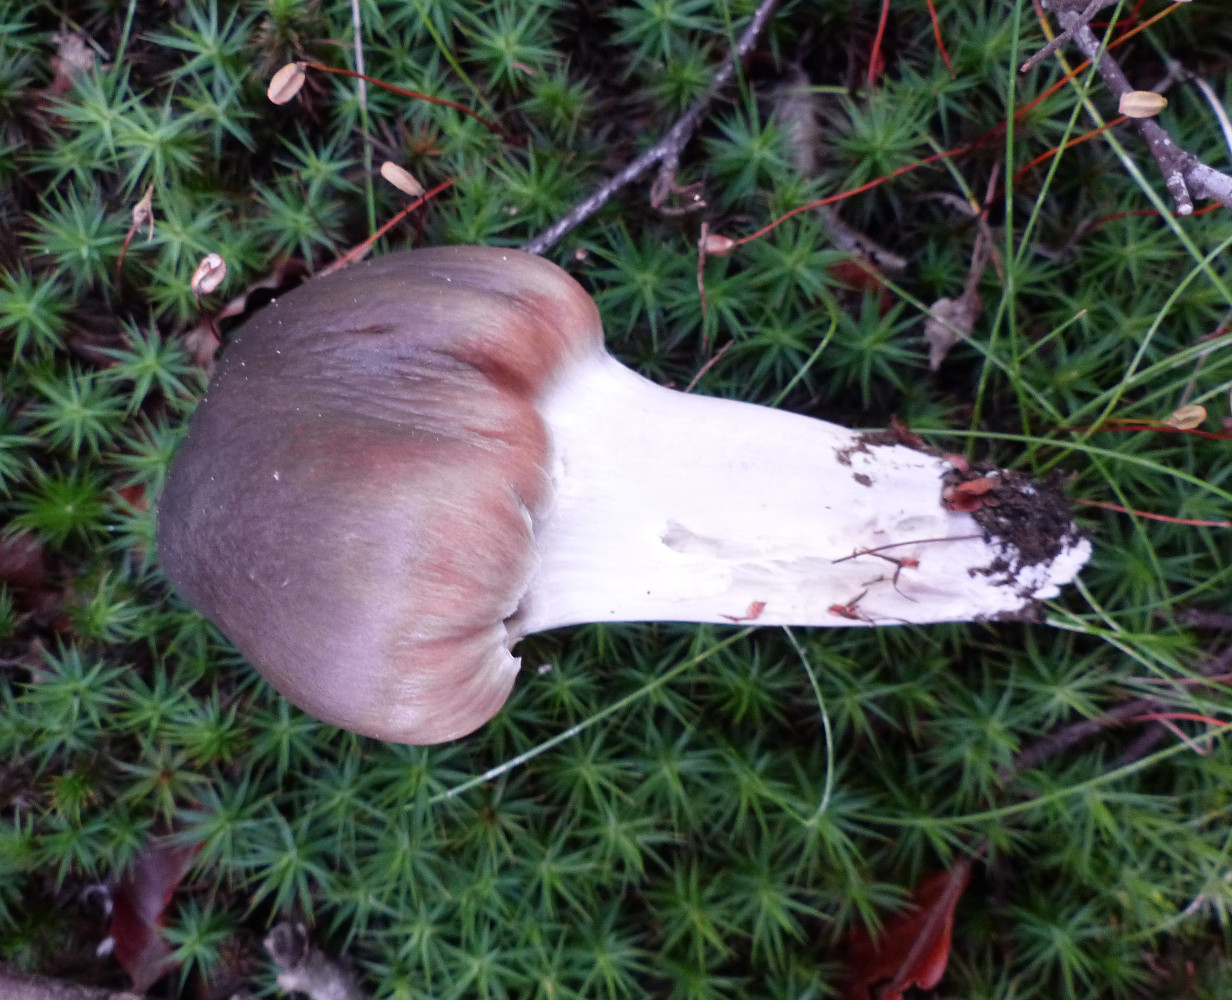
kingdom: Fungi
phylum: Basidiomycota
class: Agaricomycetes
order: Agaricales
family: Cortinariaceae
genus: Cortinarius
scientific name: Cortinarius
